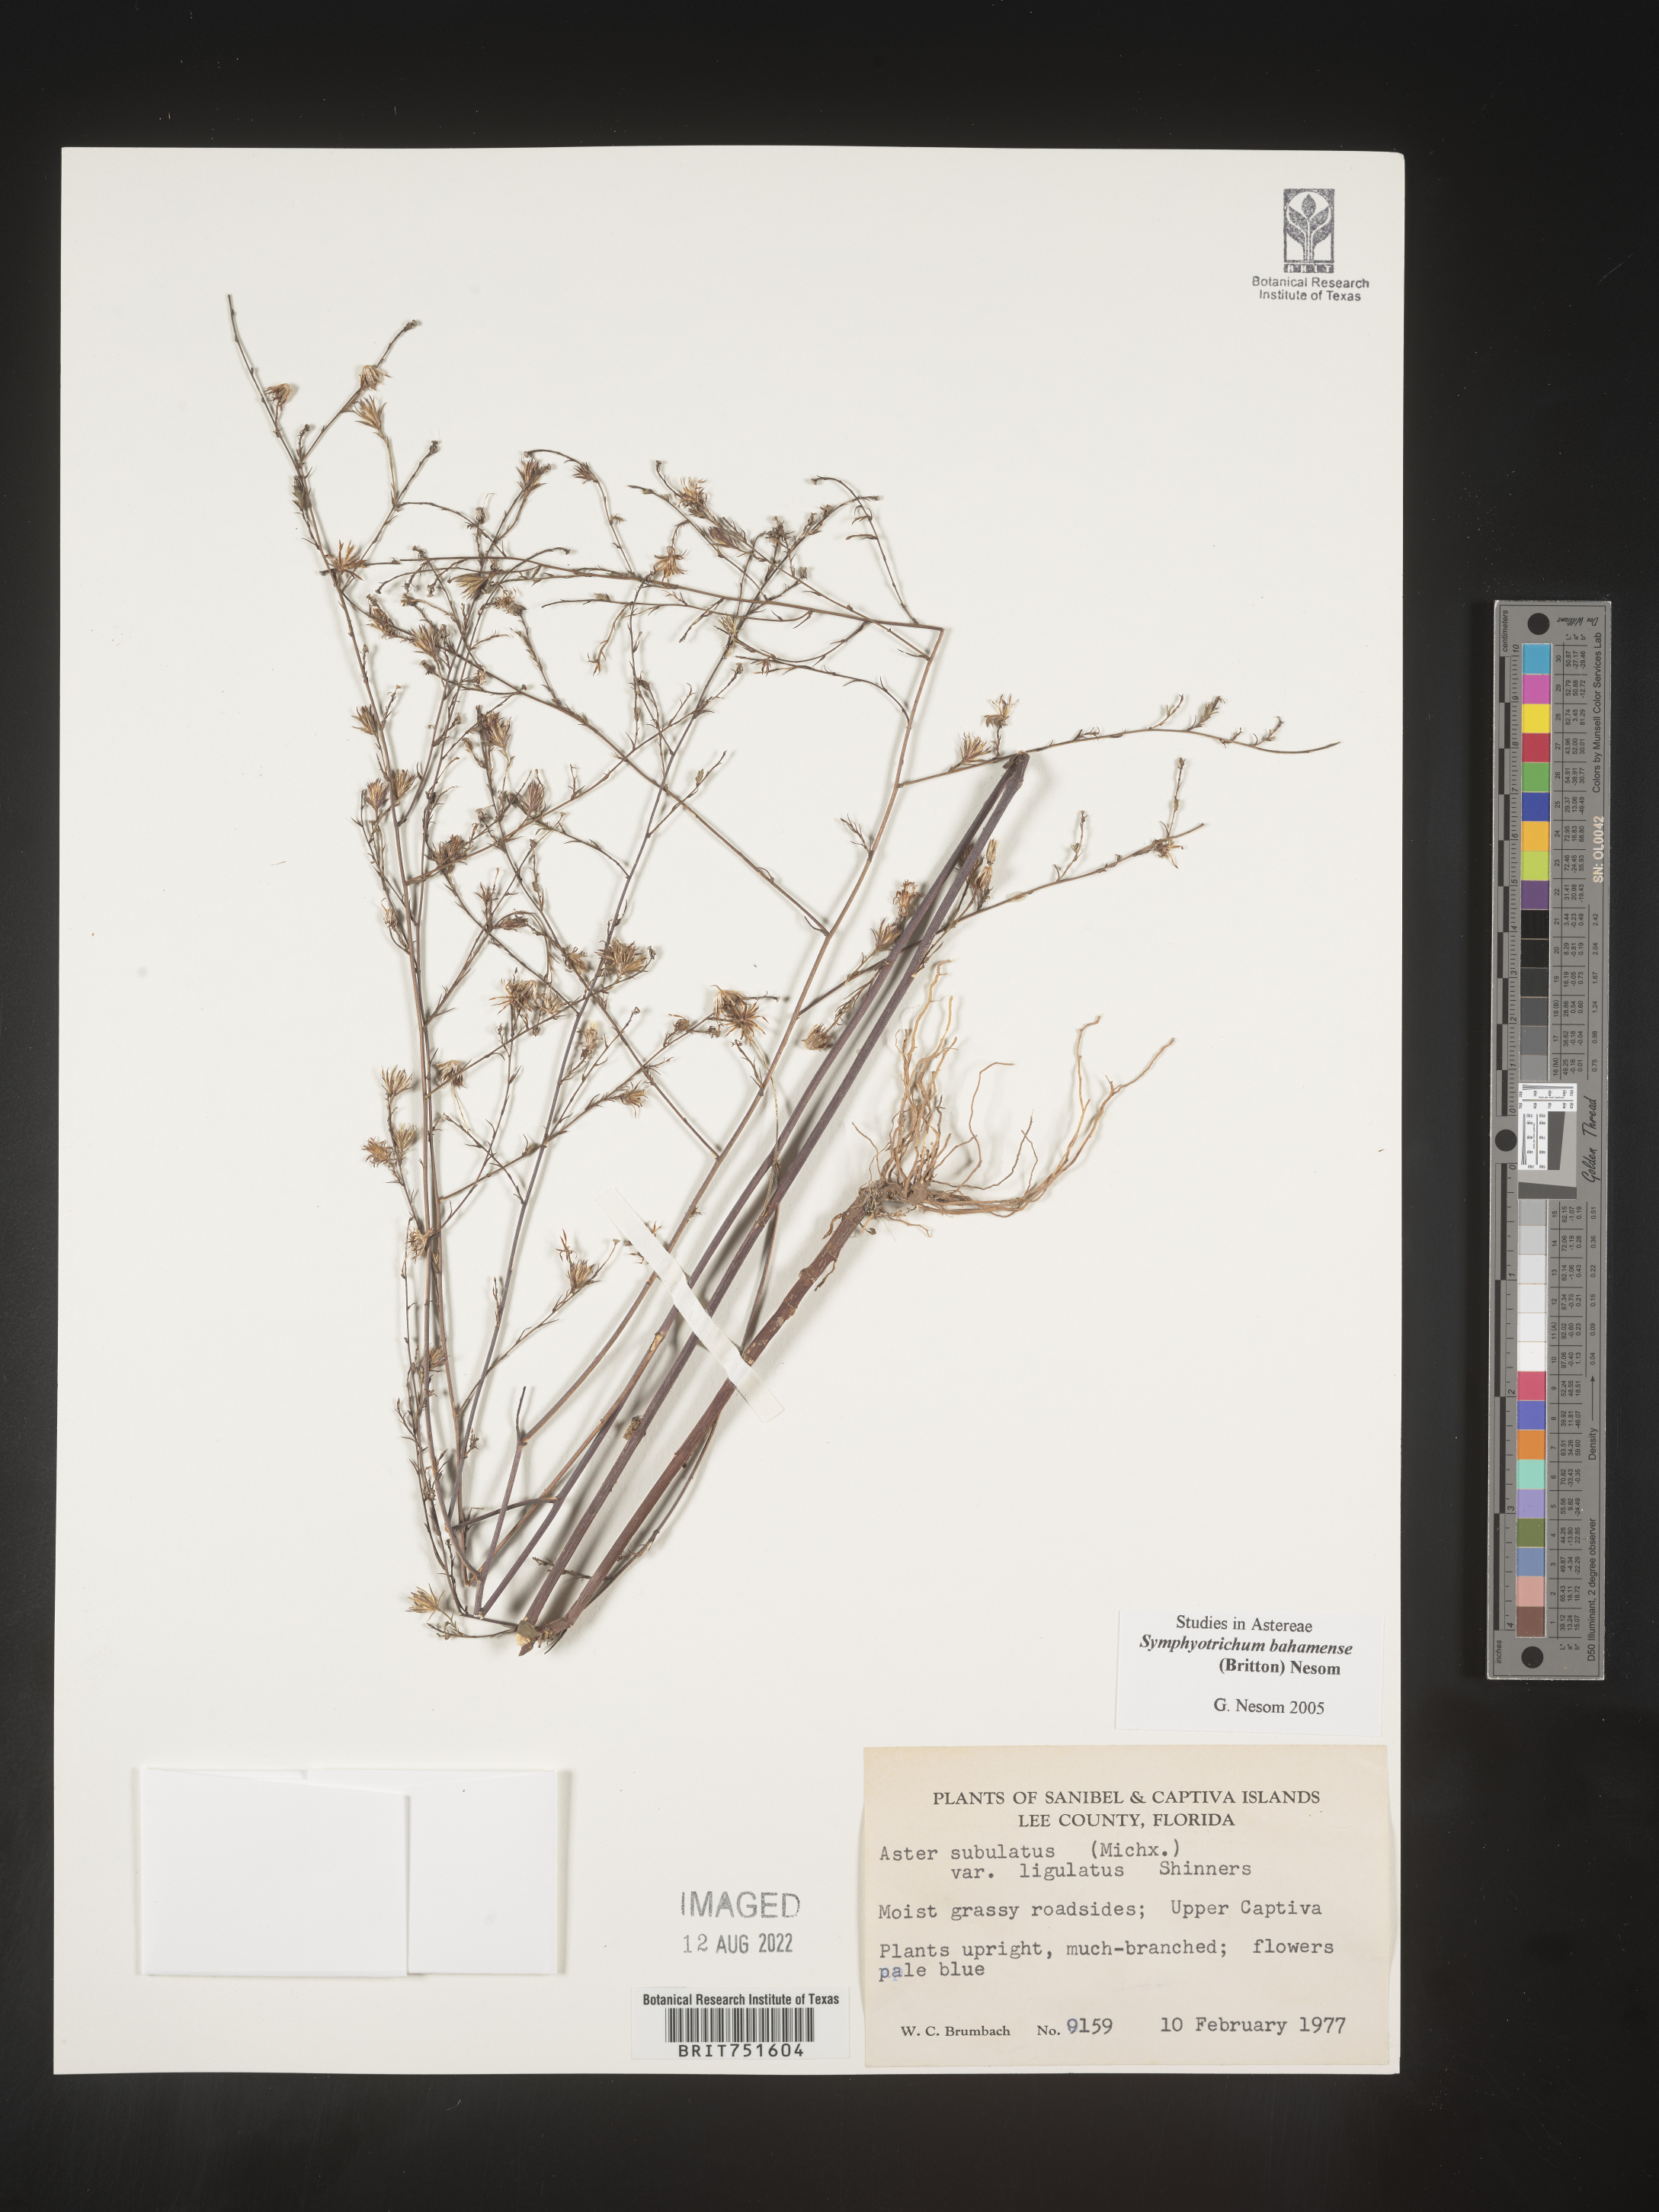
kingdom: Plantae
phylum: Tracheophyta
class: Magnoliopsida
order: Asterales
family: Asteraceae
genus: Symphyotrichum
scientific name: Symphyotrichum subulatum
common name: Annual saltmarsh aster
